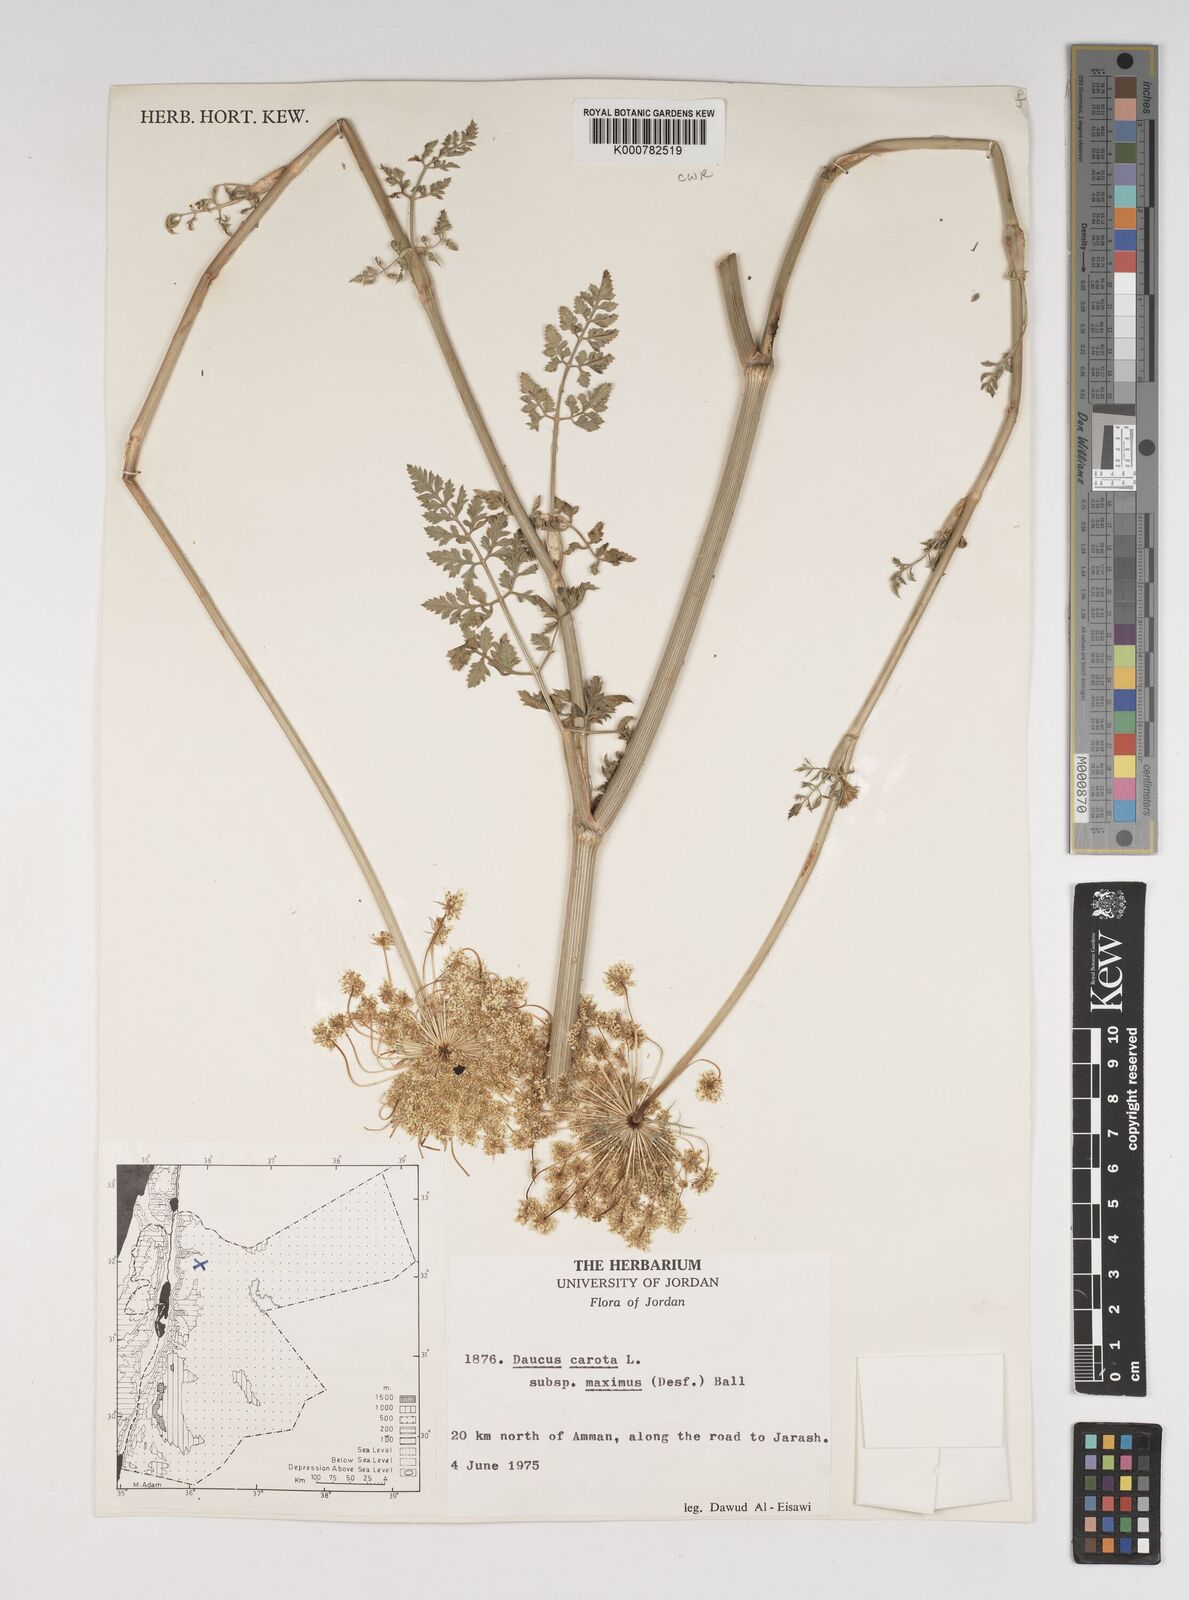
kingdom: Plantae
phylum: Tracheophyta
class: Magnoliopsida
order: Apiales
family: Apiaceae
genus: Daucus
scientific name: Daucus carota
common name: Wild carrot
